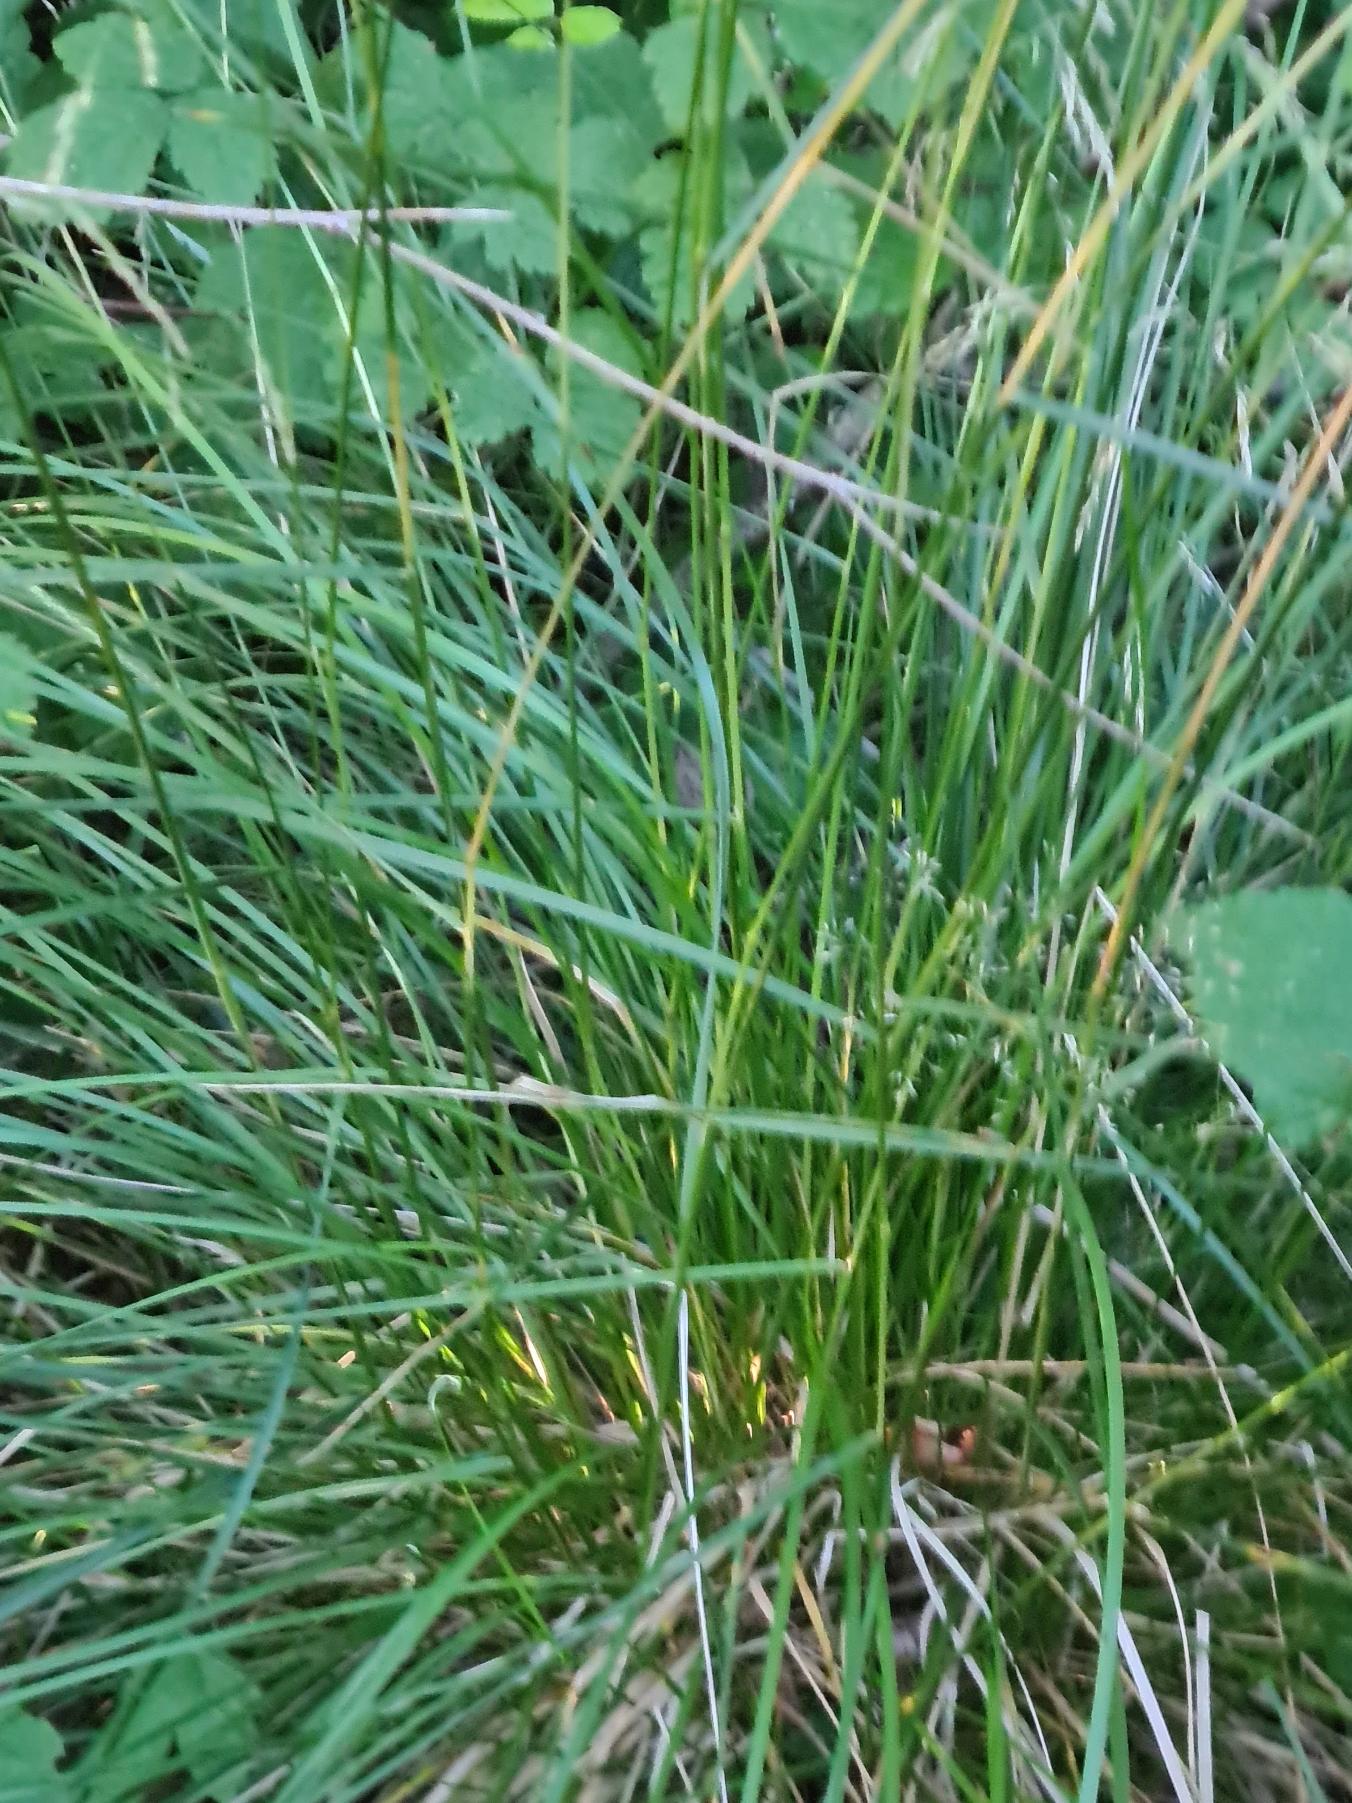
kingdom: Plantae
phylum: Tracheophyta
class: Liliopsida
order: Poales
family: Poaceae
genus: Deschampsia
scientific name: Deschampsia cespitosa
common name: Mose-bunke
